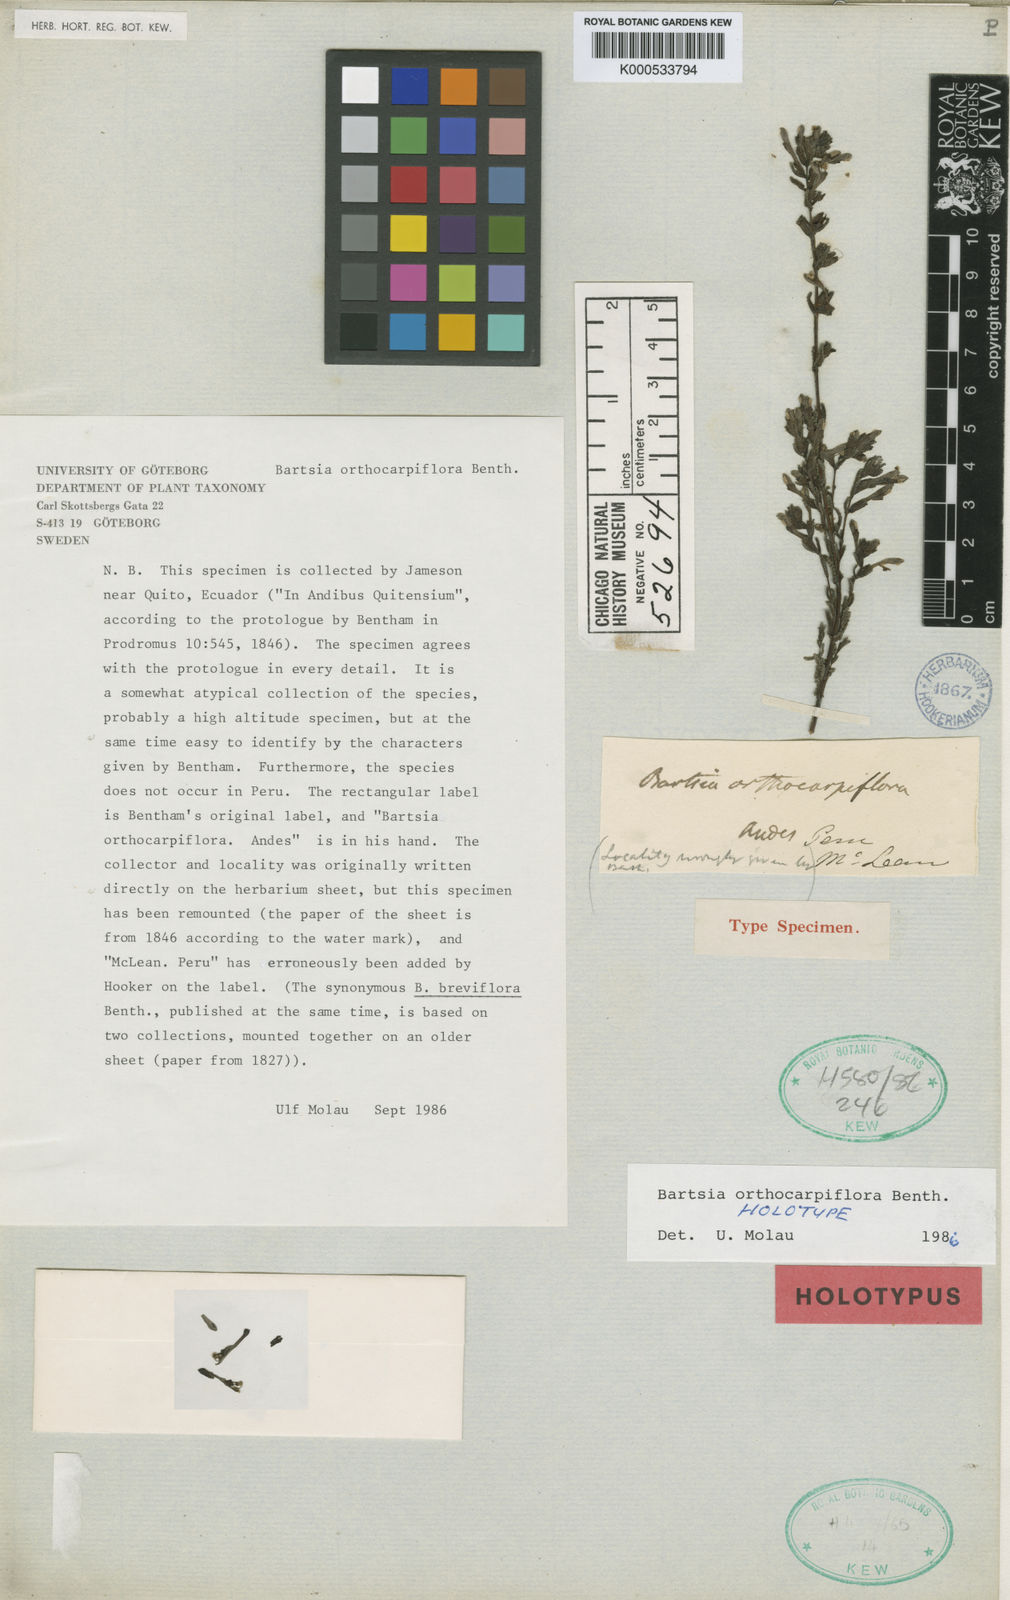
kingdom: Plantae
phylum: Tracheophyta
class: Magnoliopsida
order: Lamiales
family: Orobanchaceae
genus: Neobartsia
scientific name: Neobartsia orthocarpiflora
